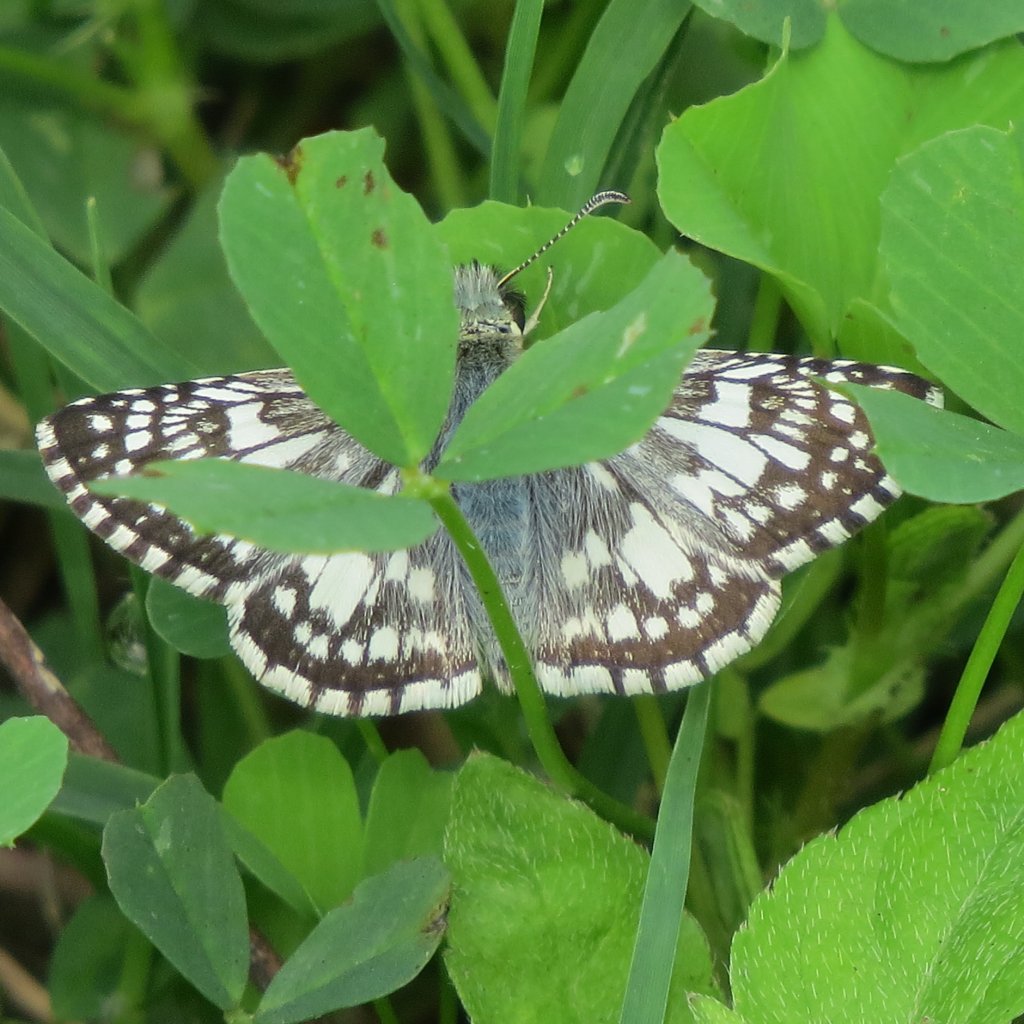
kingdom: Animalia
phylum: Arthropoda
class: Insecta
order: Lepidoptera
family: Hesperiidae
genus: Pyrgus
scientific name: Pyrgus communis
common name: Common Checkered-Skipper
